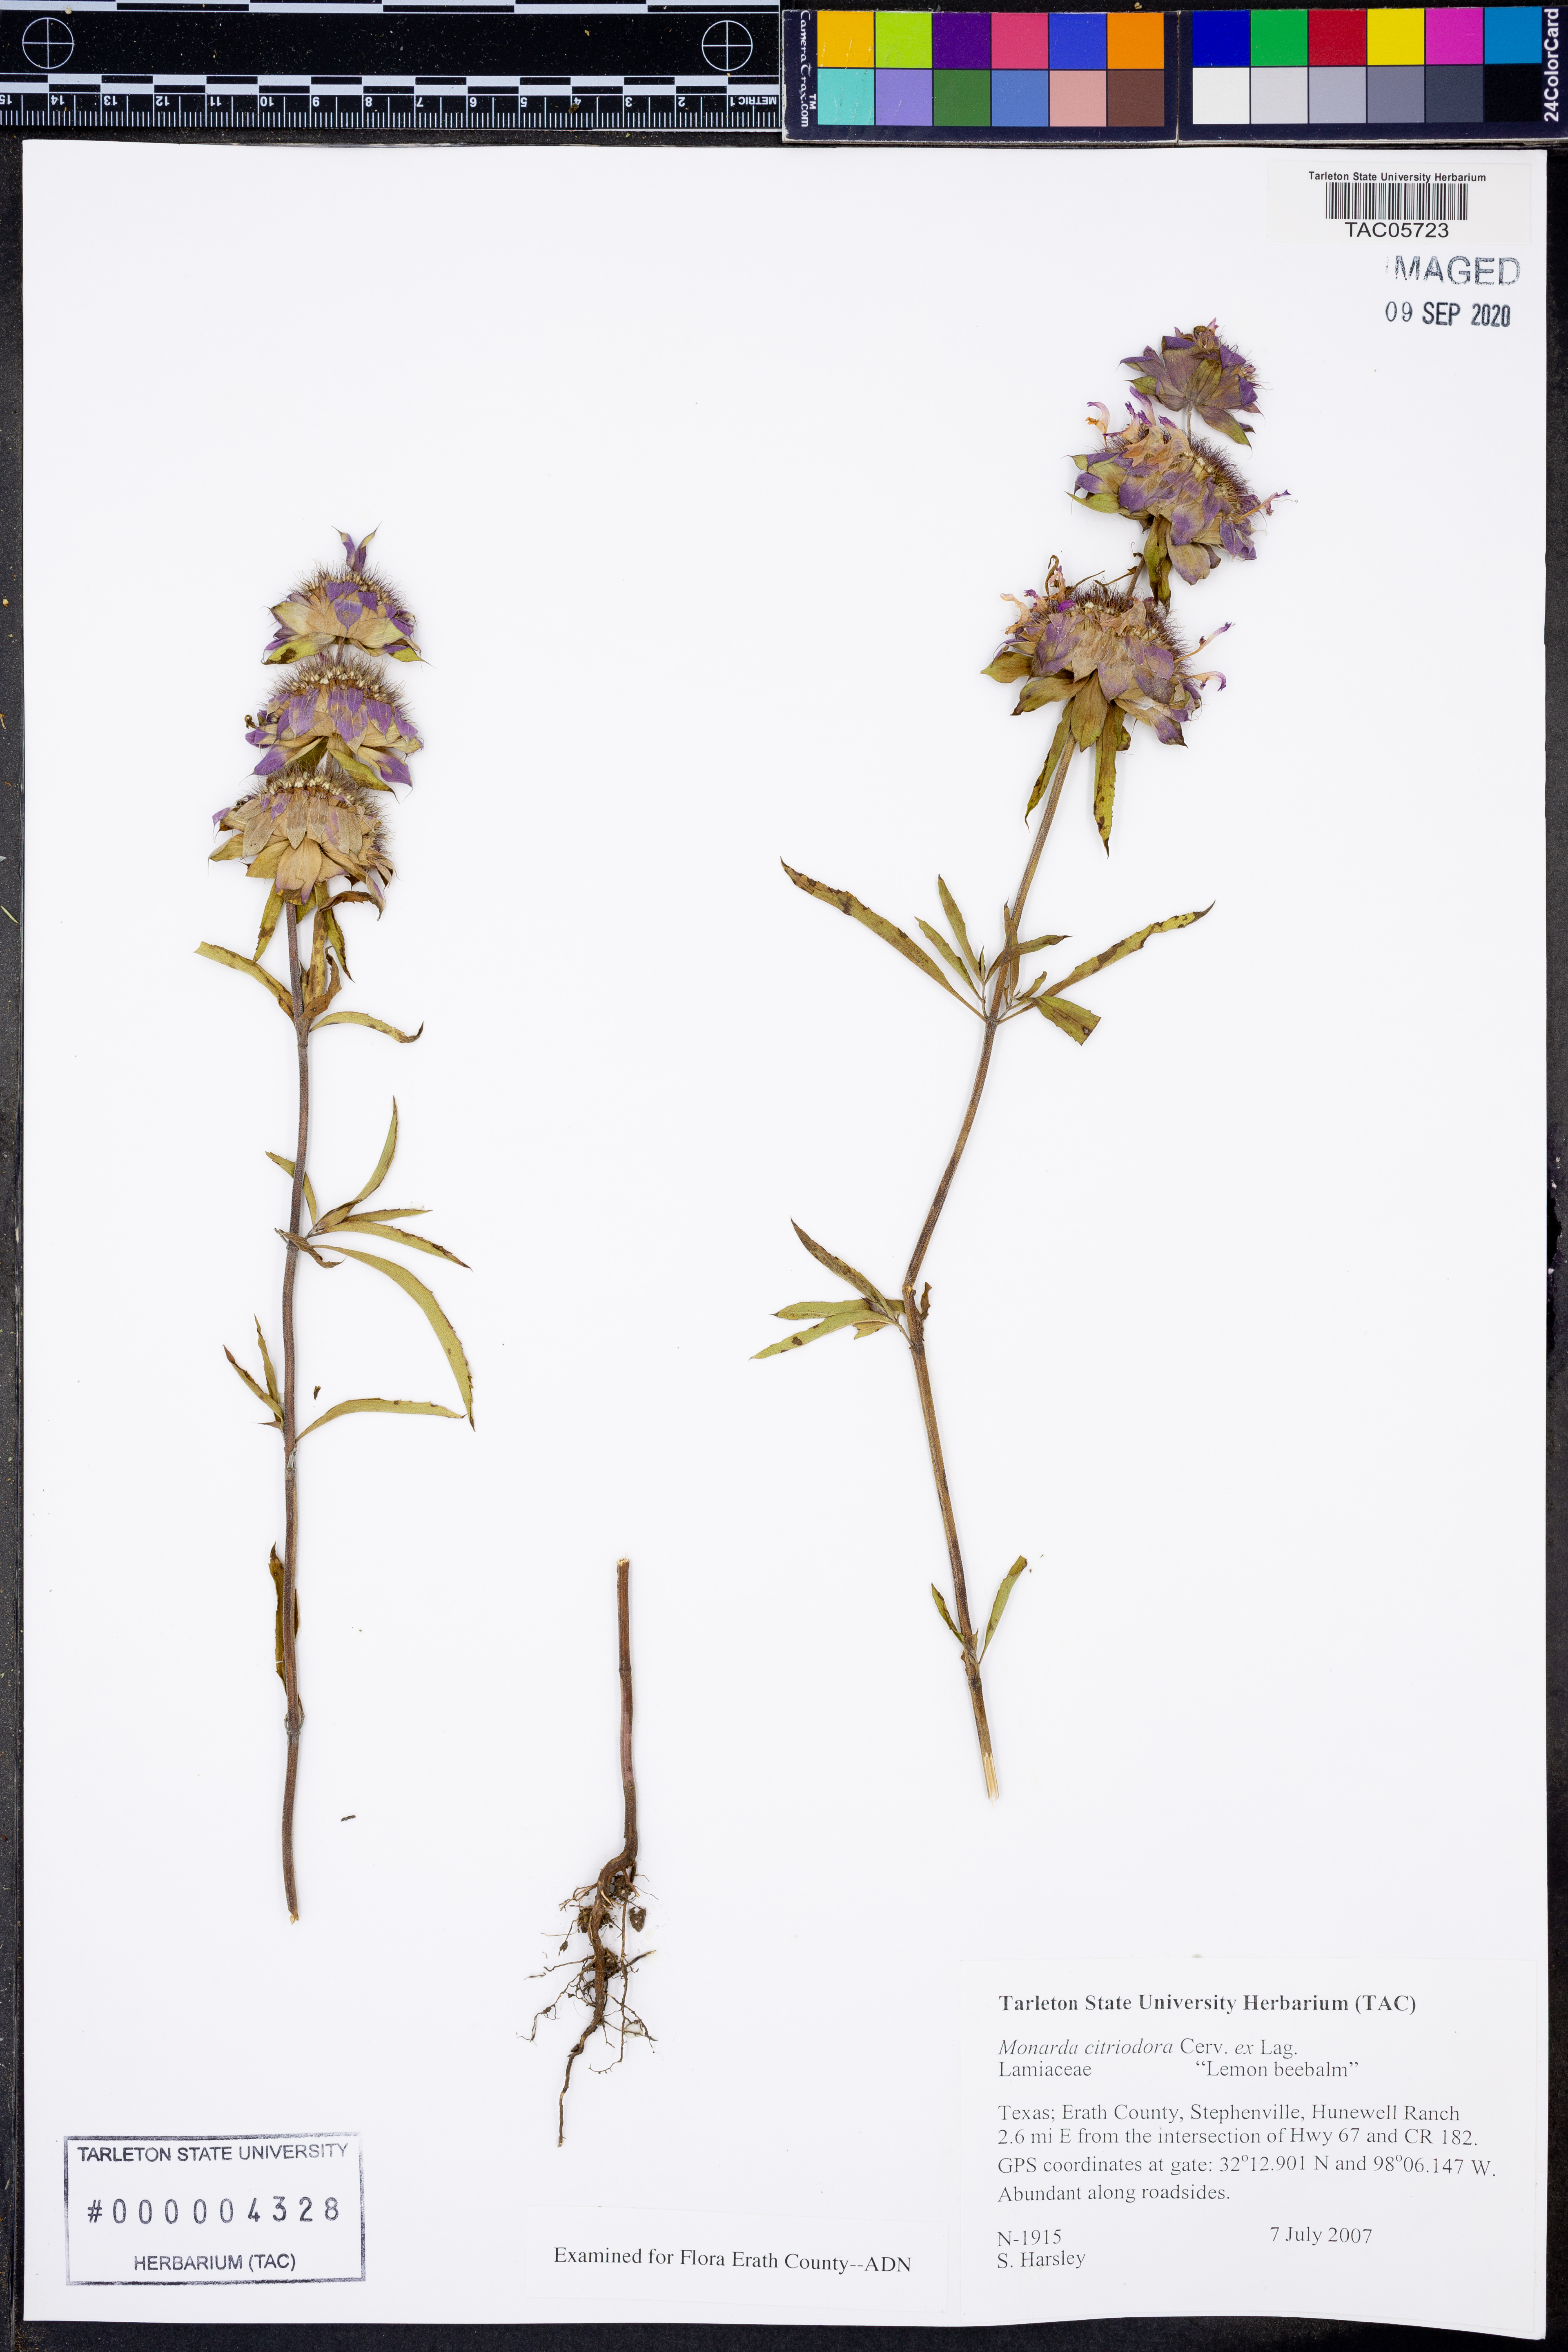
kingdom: Plantae
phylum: Tracheophyta
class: Magnoliopsida
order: Lamiales
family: Lamiaceae
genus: Monarda
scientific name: Monarda citriodora
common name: Lemon beebalm
